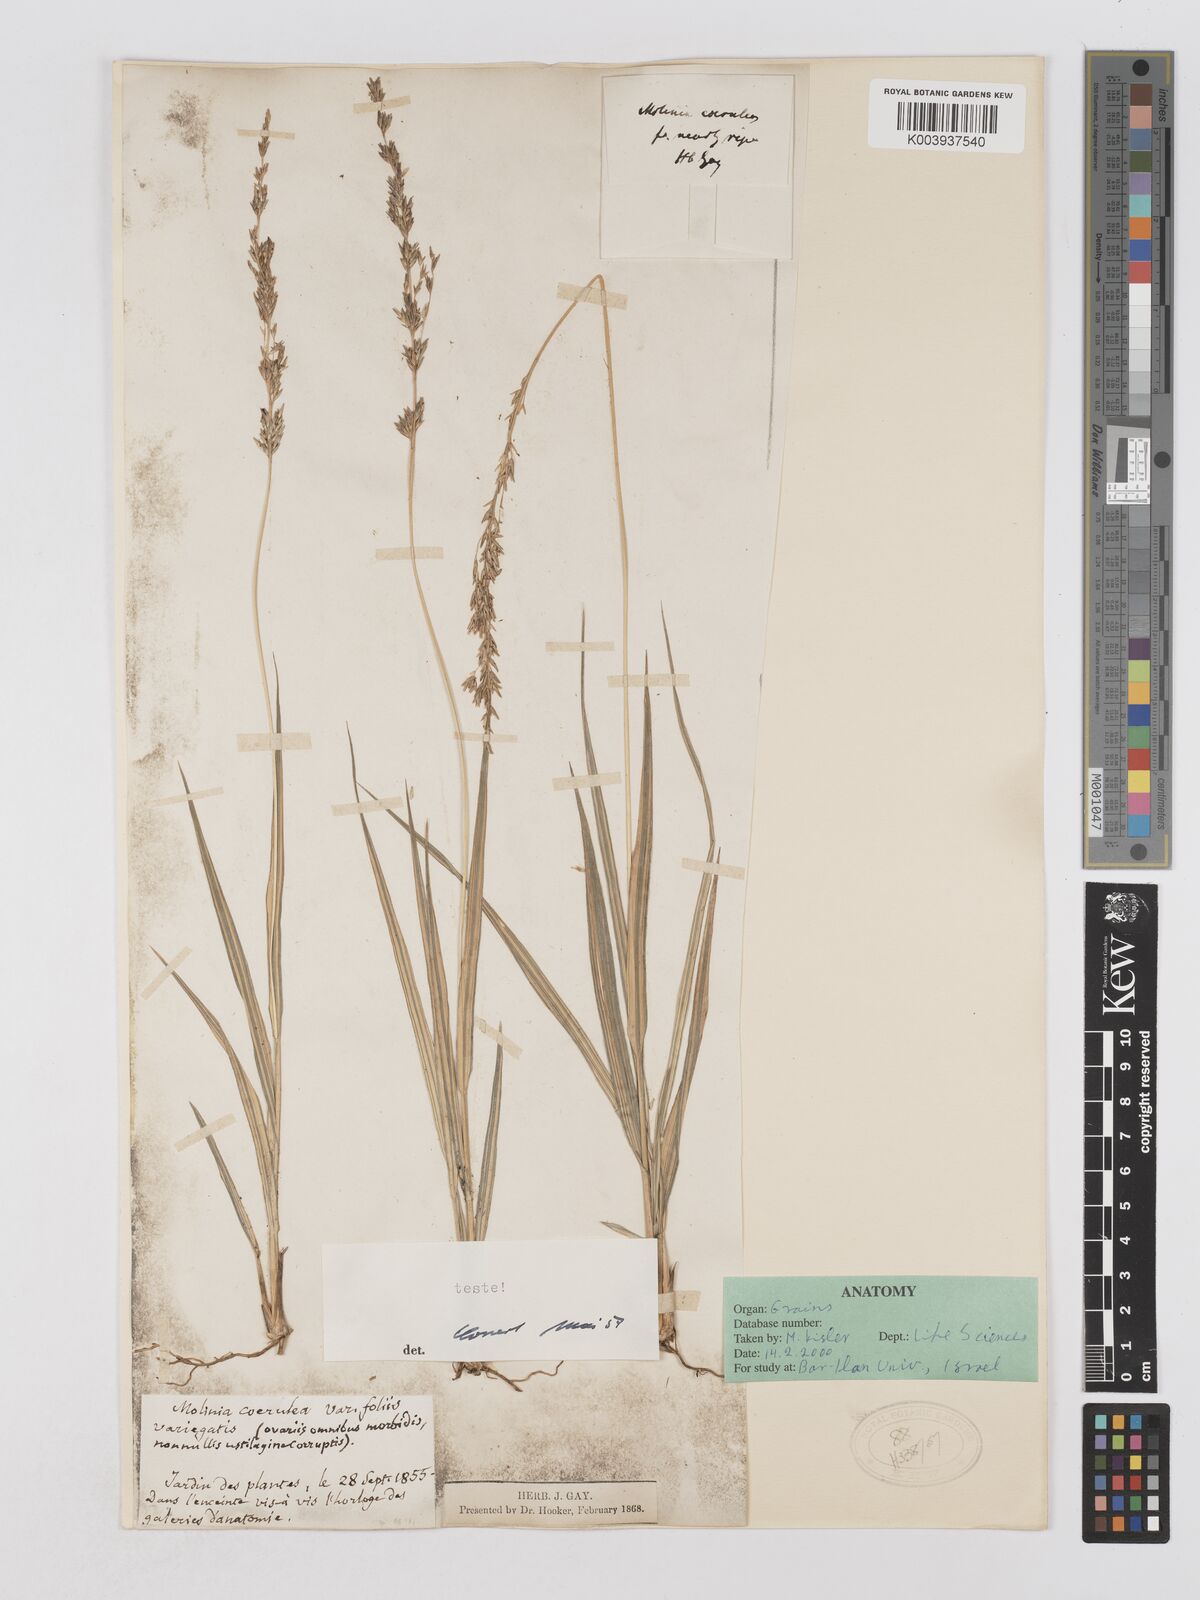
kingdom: Plantae
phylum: Tracheophyta
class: Liliopsida
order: Poales
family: Poaceae
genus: Molinia
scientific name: Molinia
